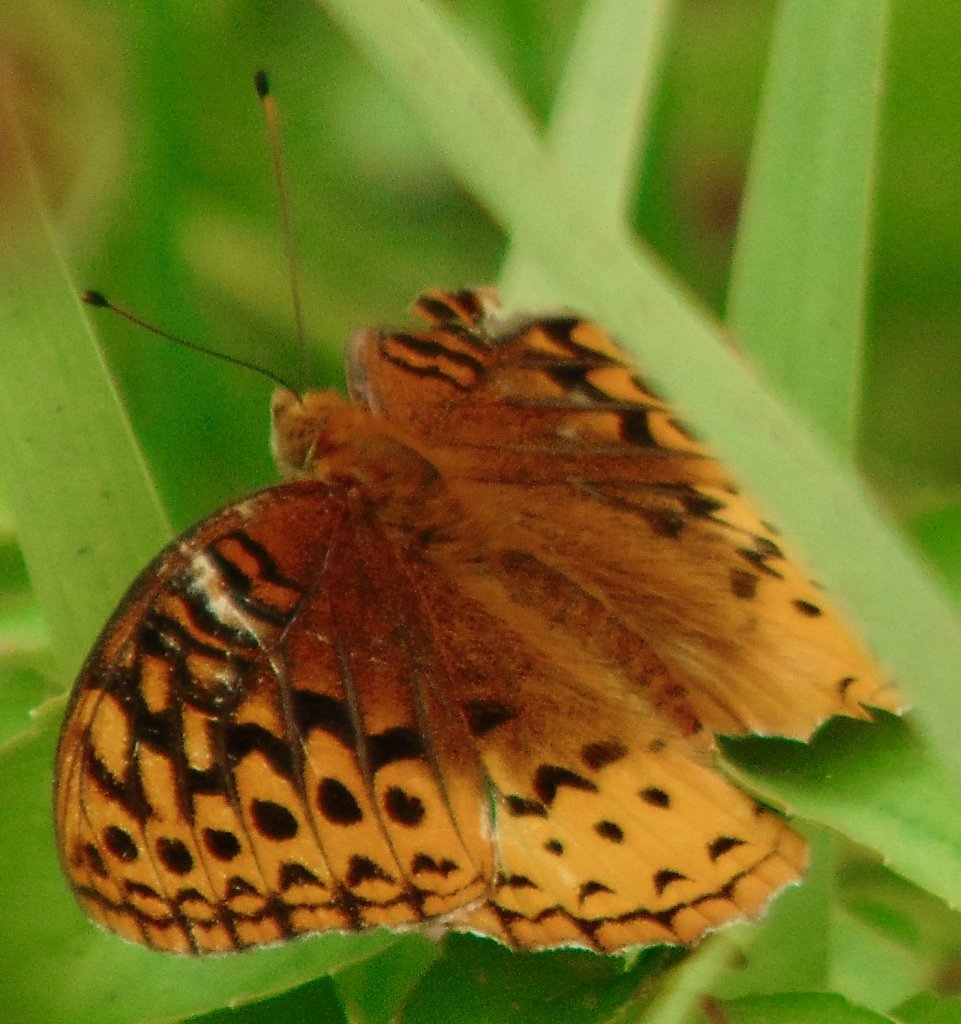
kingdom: Animalia
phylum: Arthropoda
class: Insecta
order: Lepidoptera
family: Nymphalidae
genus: Speyeria
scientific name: Speyeria cybele
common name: Great Spangled Fritillary
